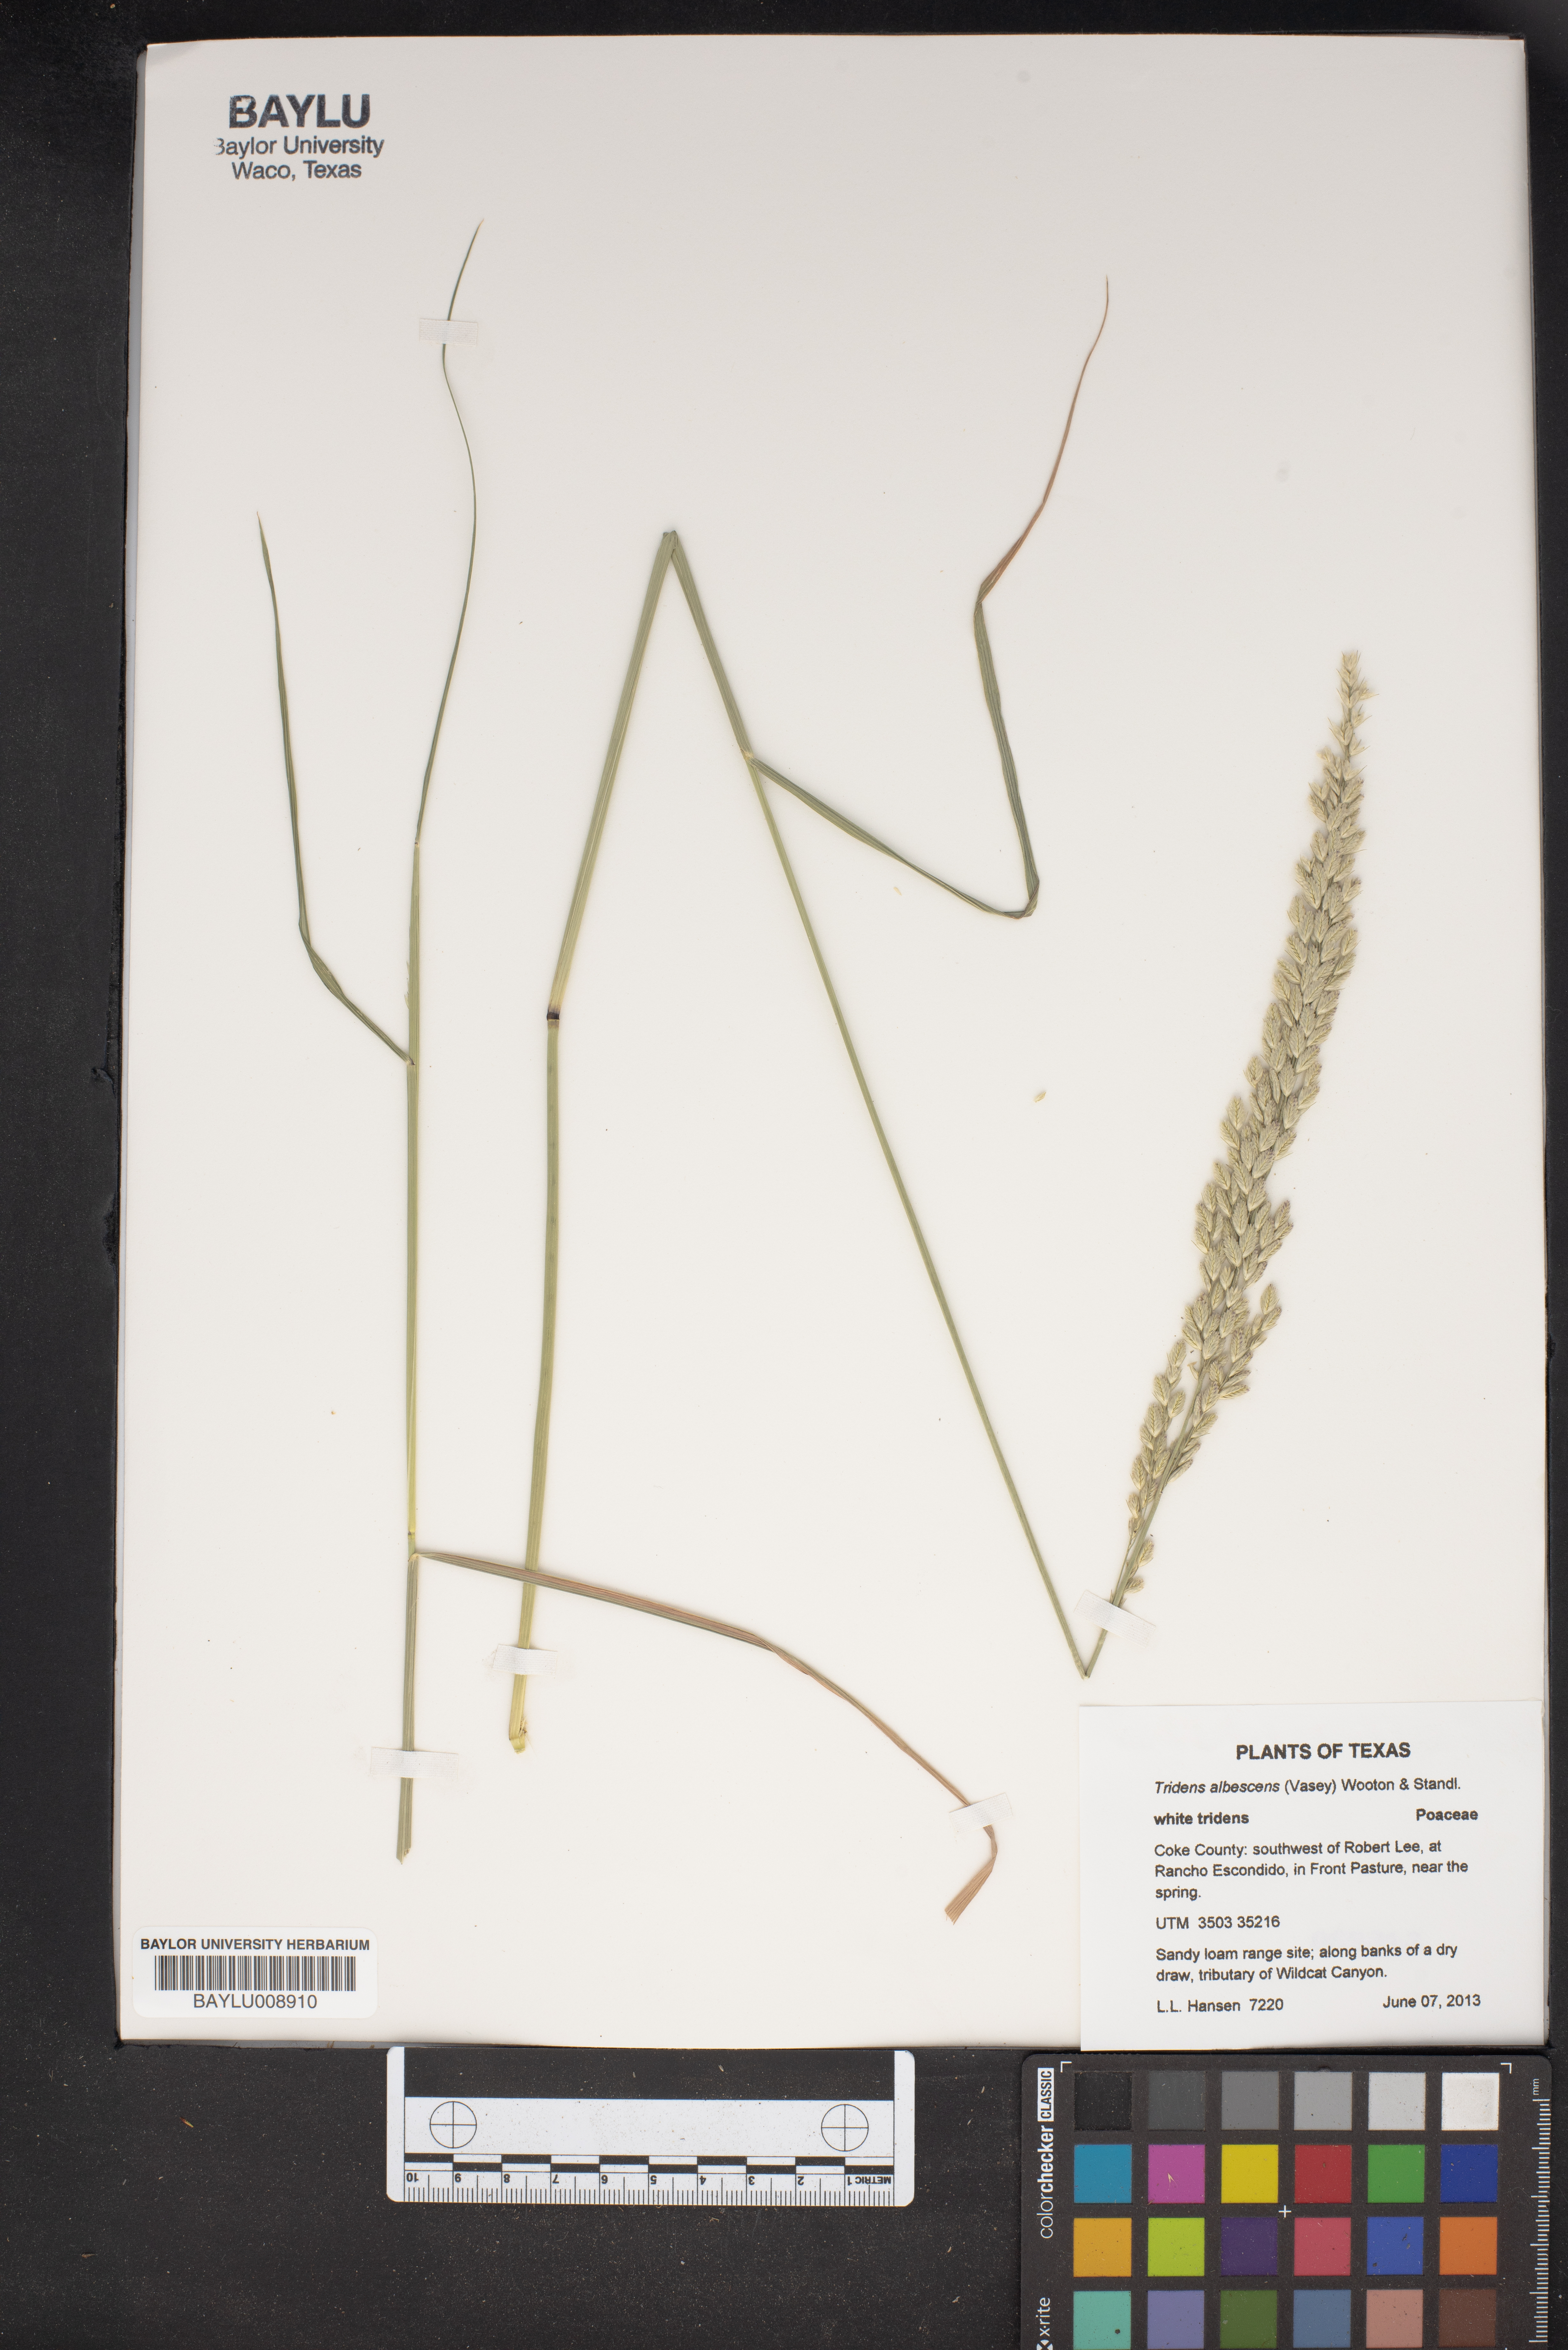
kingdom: Plantae
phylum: Tracheophyta
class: Liliopsida
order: Poales
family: Poaceae
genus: Tridens
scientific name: Tridens albescens
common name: White tridens
